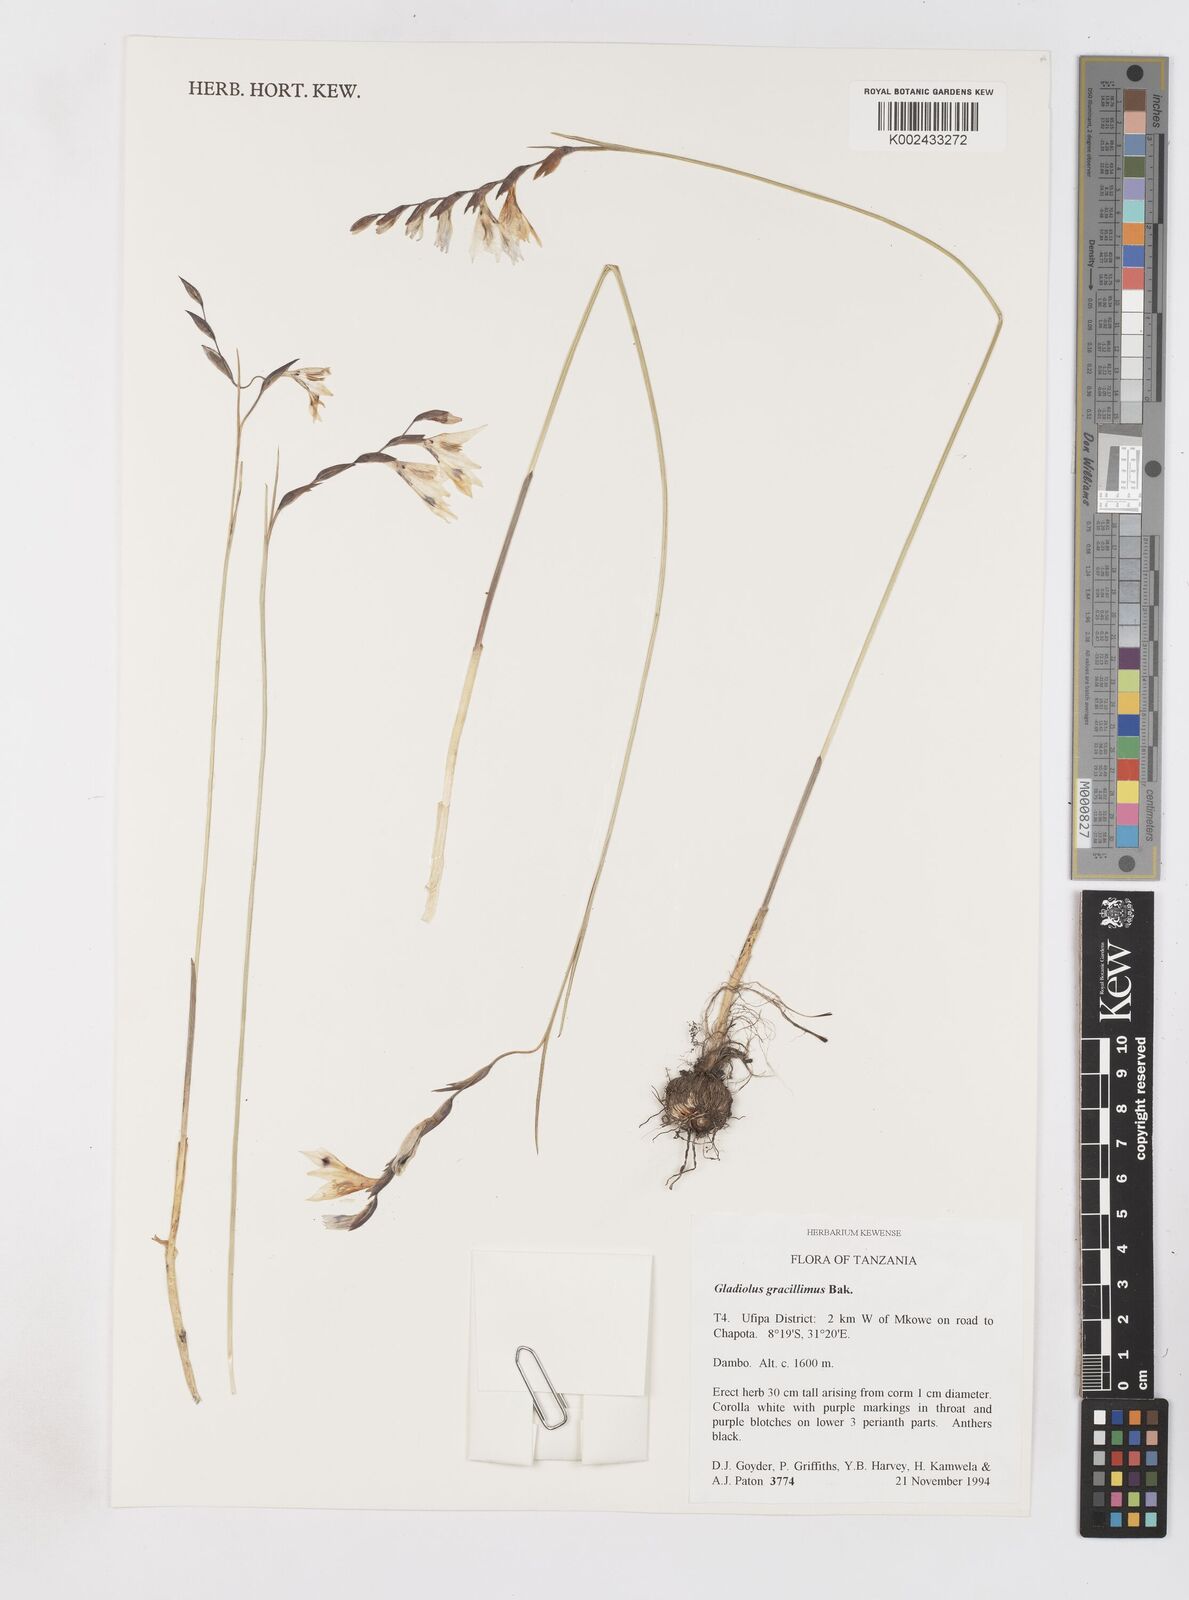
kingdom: Plantae
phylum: Tracheophyta
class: Liliopsida
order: Asparagales
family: Iridaceae
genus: Gladiolus
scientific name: Gladiolus gracillimus
